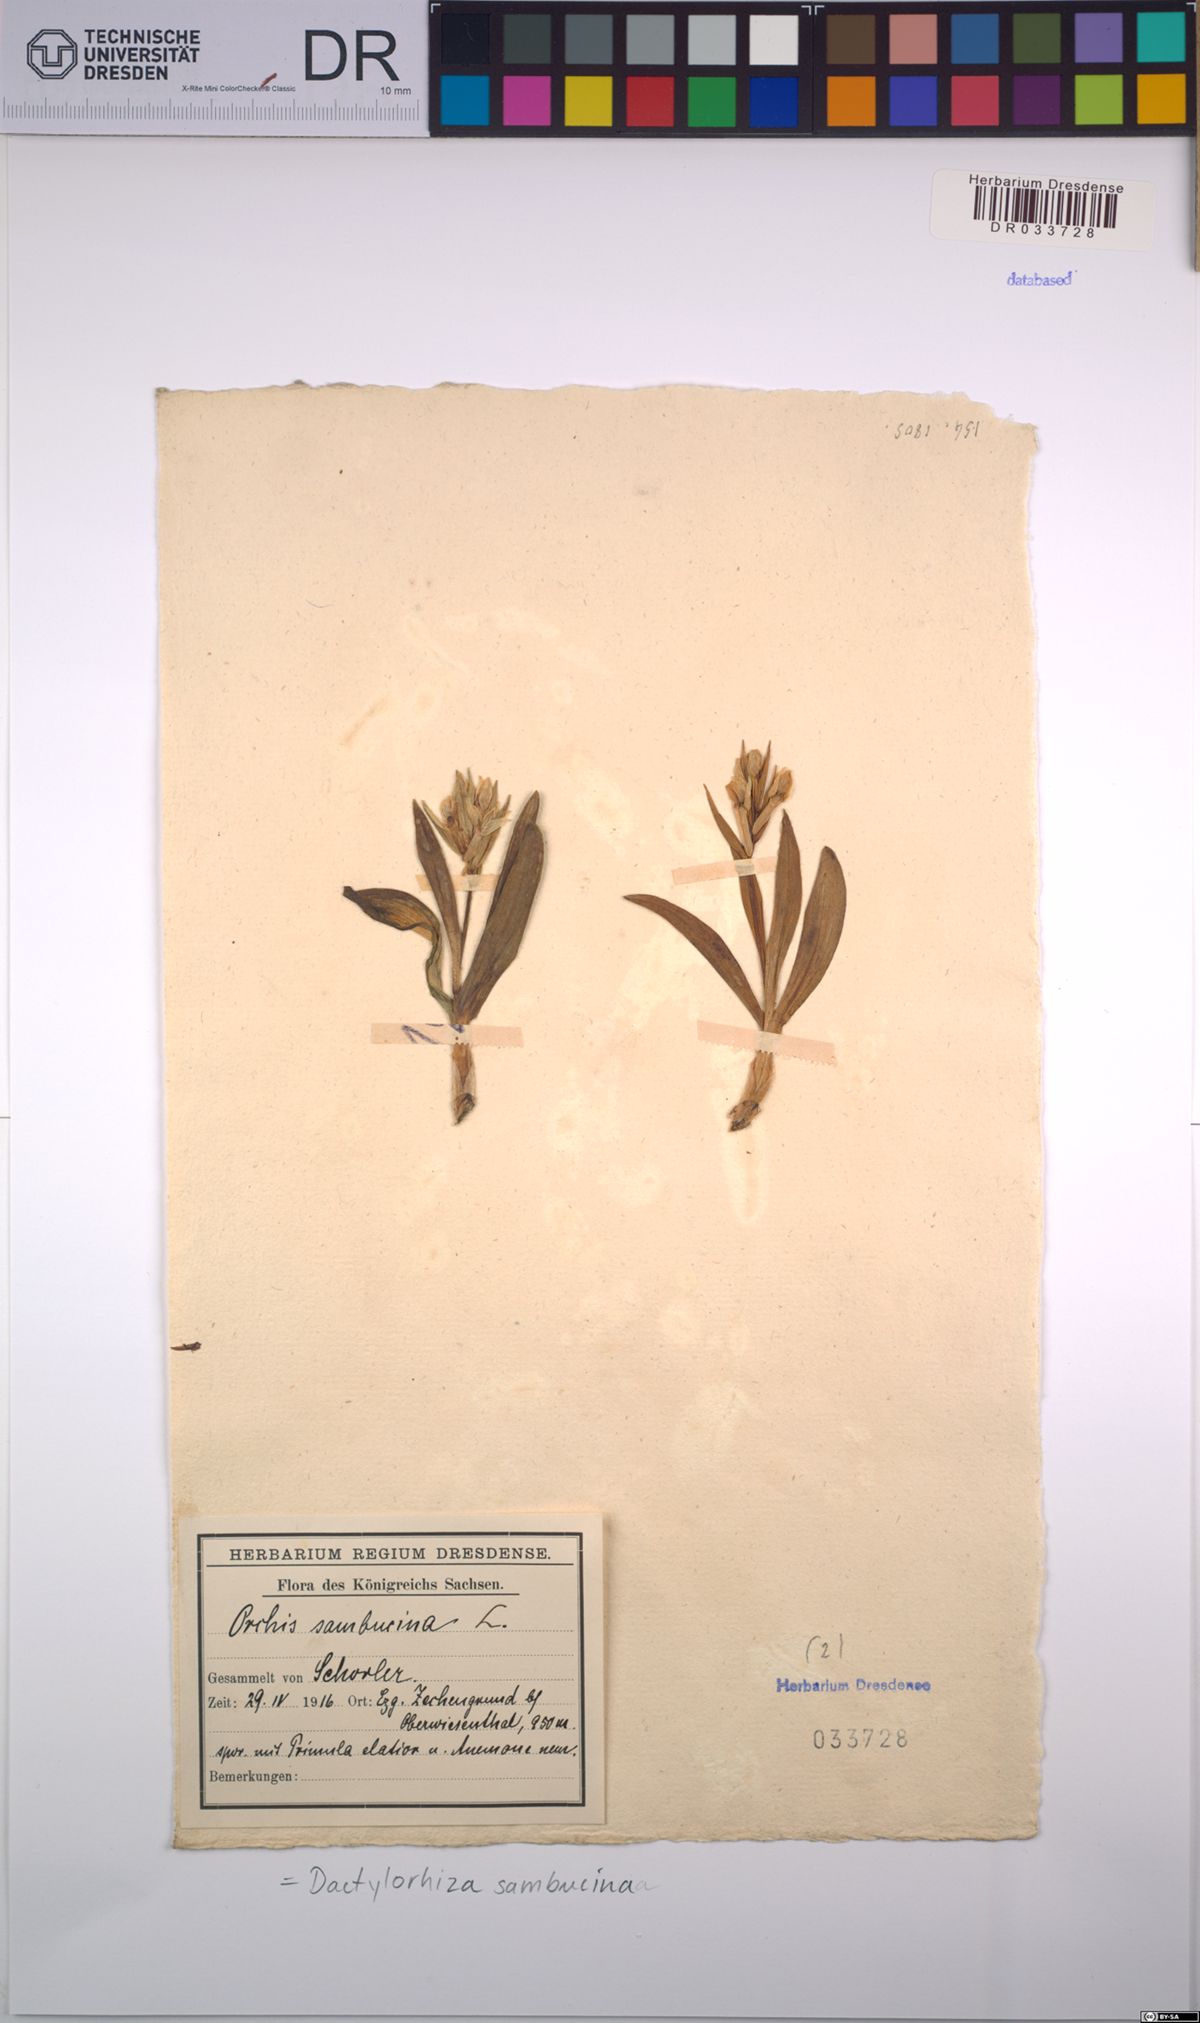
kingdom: Plantae
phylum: Tracheophyta
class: Liliopsida
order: Asparagales
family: Orchidaceae
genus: Dactylorhiza
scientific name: Dactylorhiza sambucina
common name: Elder-flowered orchid
